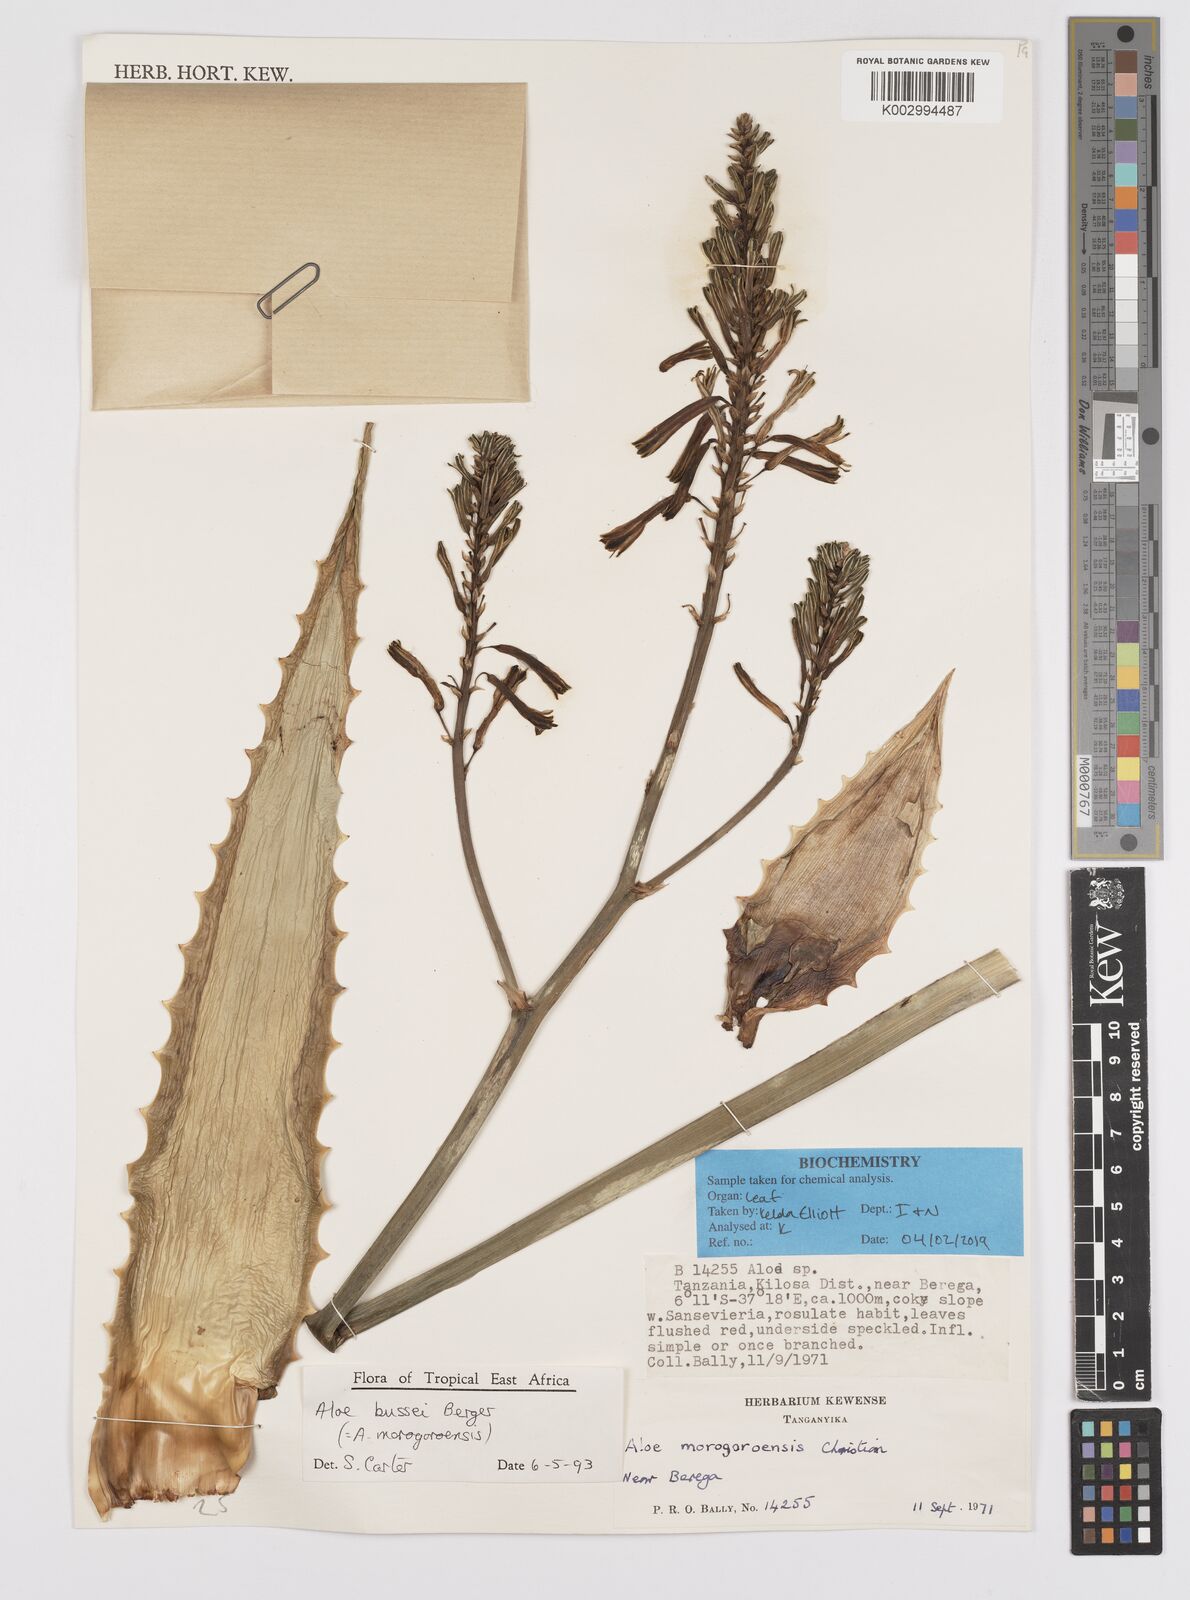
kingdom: Plantae
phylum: Tracheophyta
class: Liliopsida
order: Asparagales
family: Asphodelaceae
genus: Aloe
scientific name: Aloe bussei
